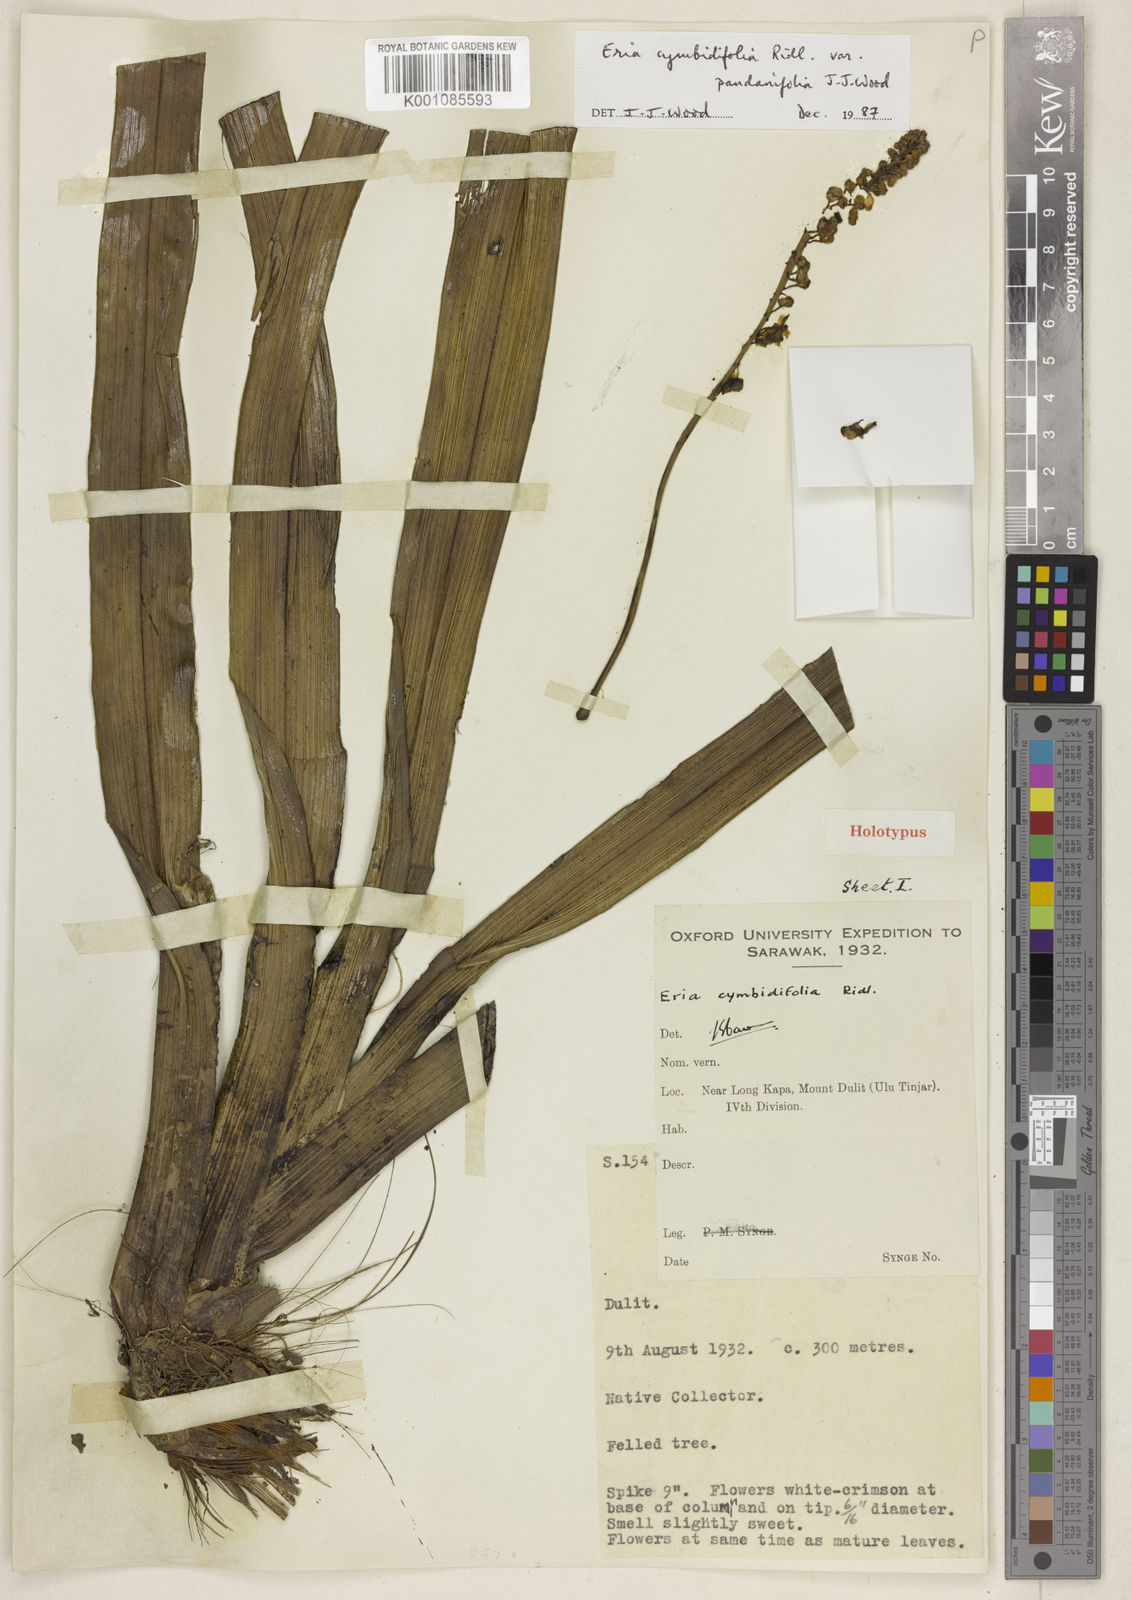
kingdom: Plantae
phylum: Tracheophyta
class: Liliopsida
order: Asparagales
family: Orchidaceae
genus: Cymboglossum
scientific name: Cymboglossum cymbidiifolium
